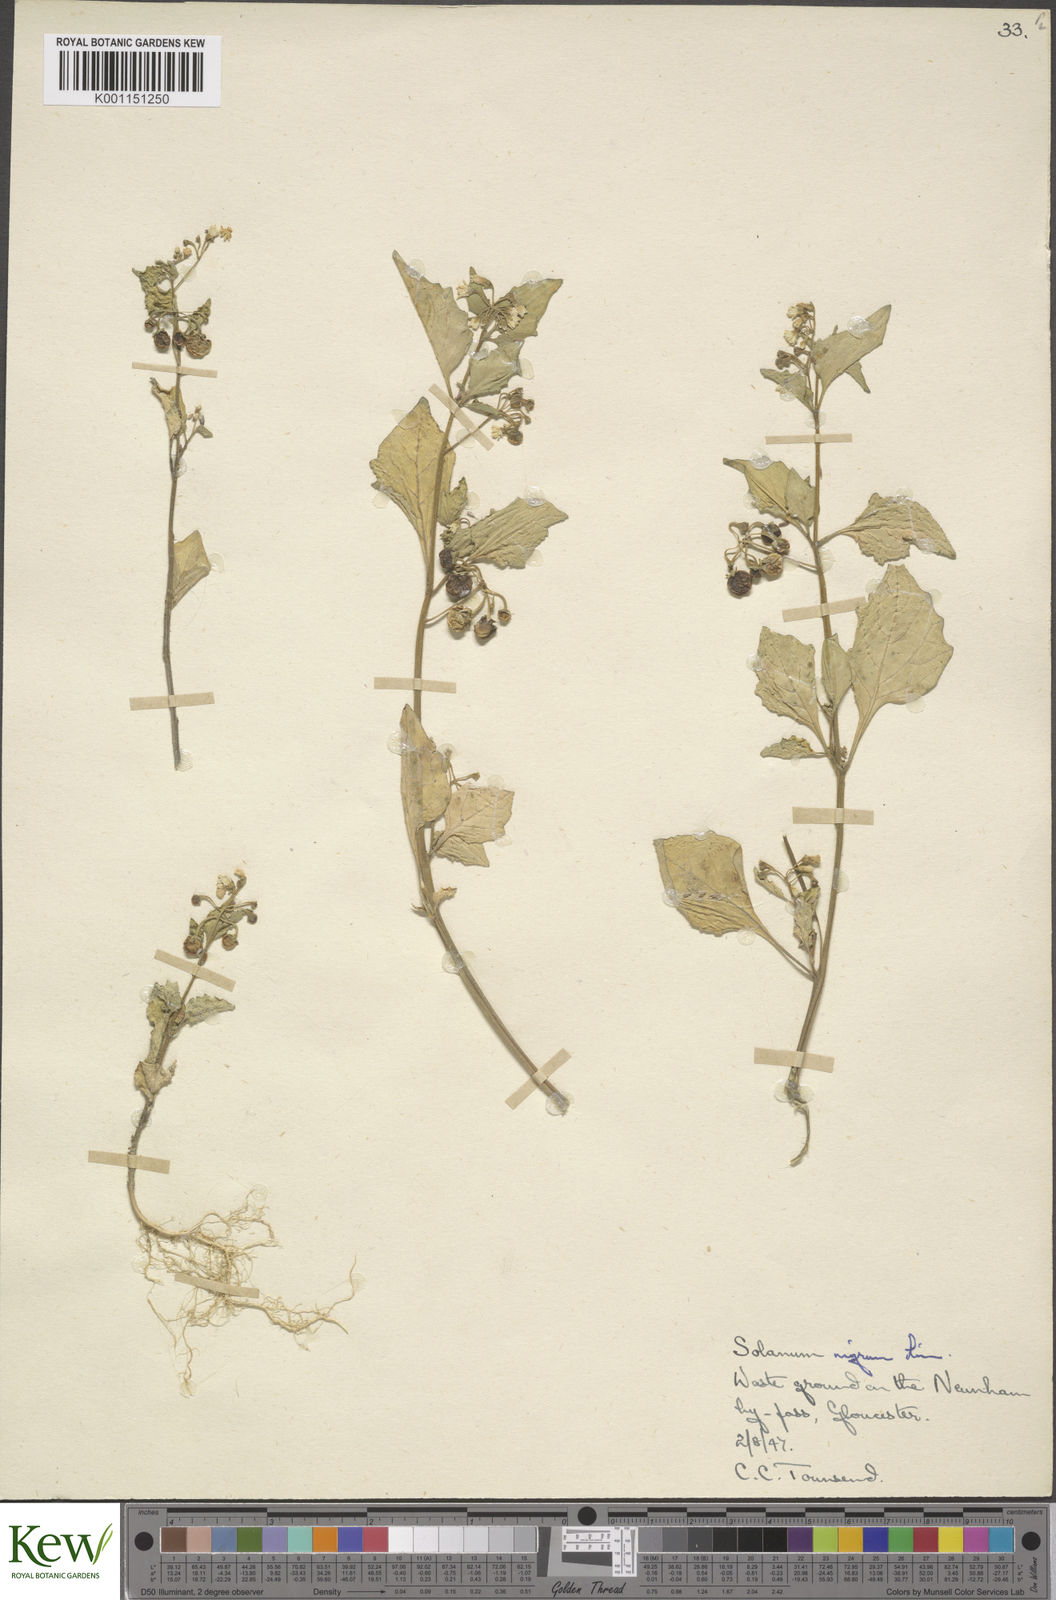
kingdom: Plantae
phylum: Tracheophyta
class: Magnoliopsida
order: Solanales
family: Solanaceae
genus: Solanum
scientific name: Solanum nigrum
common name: Black nightshade
